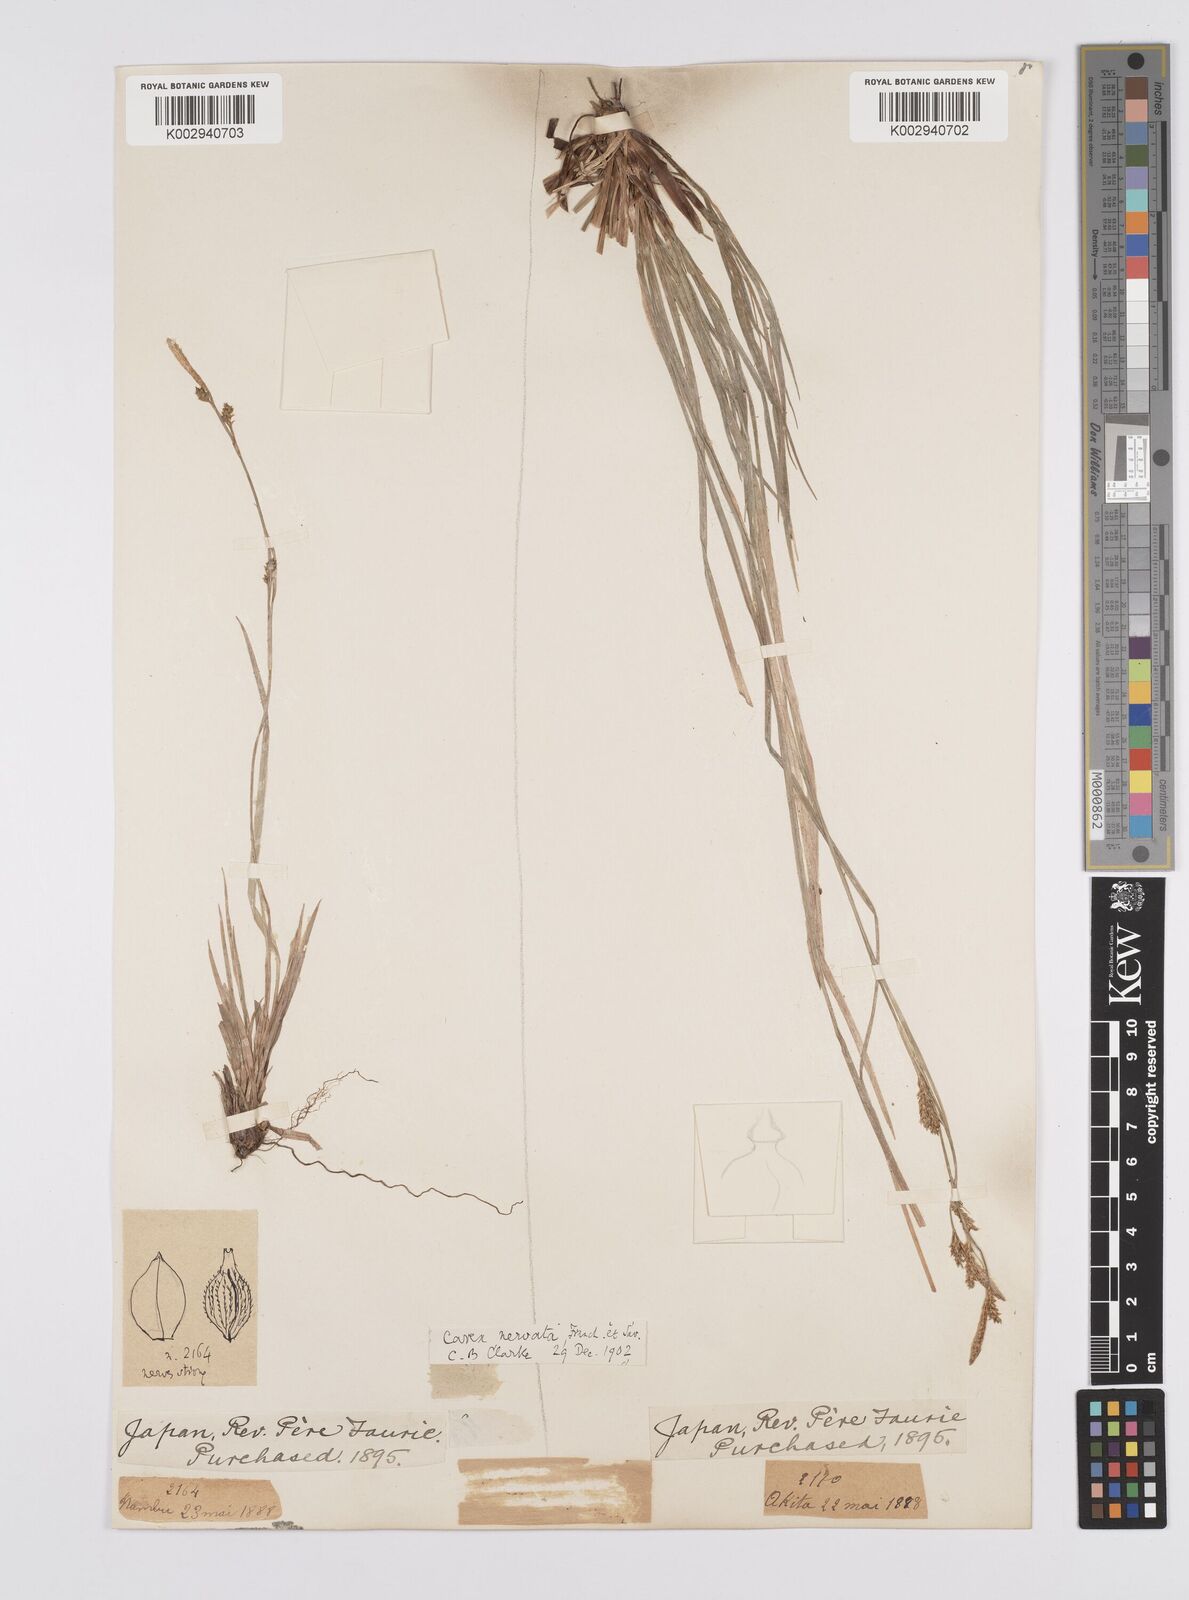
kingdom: Plantae
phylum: Tracheophyta
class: Liliopsida
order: Poales
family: Cyperaceae
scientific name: Cyperaceae
